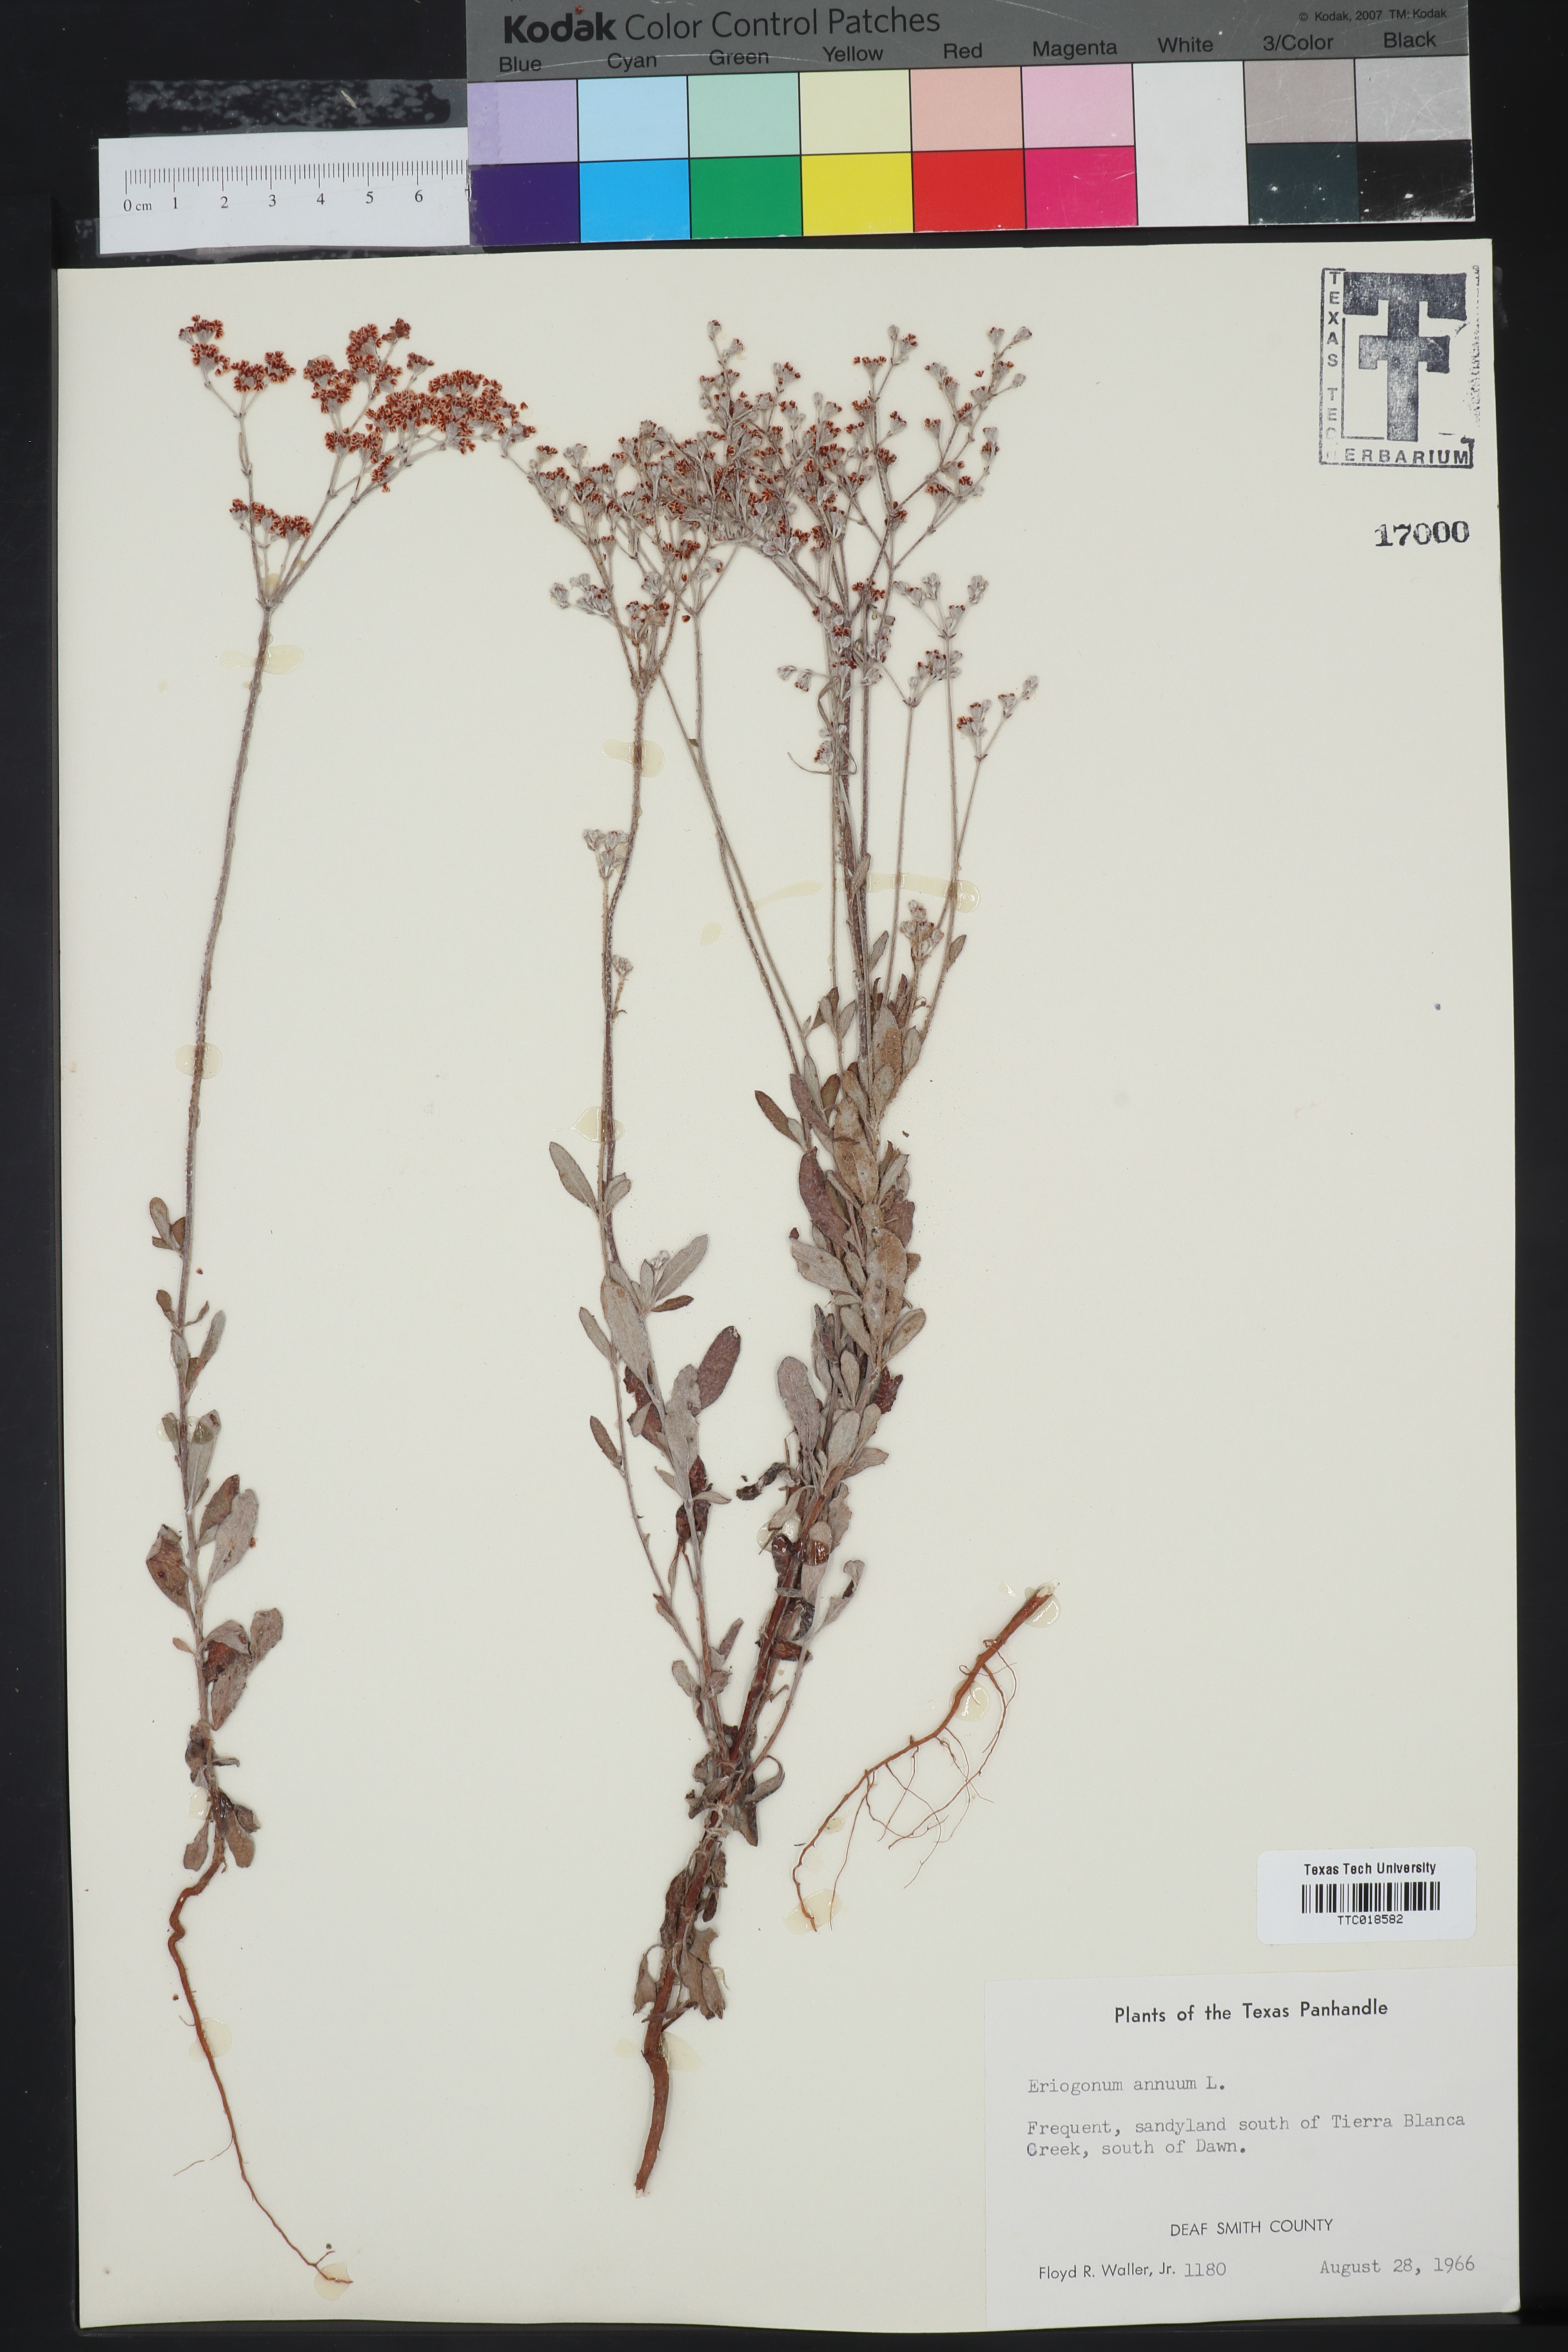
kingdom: Plantae
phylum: Tracheophyta
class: Magnoliopsida
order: Caryophyllales
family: Polygonaceae
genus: Eriogonum
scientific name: Eriogonum annuum
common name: Annual wild buckwheat
